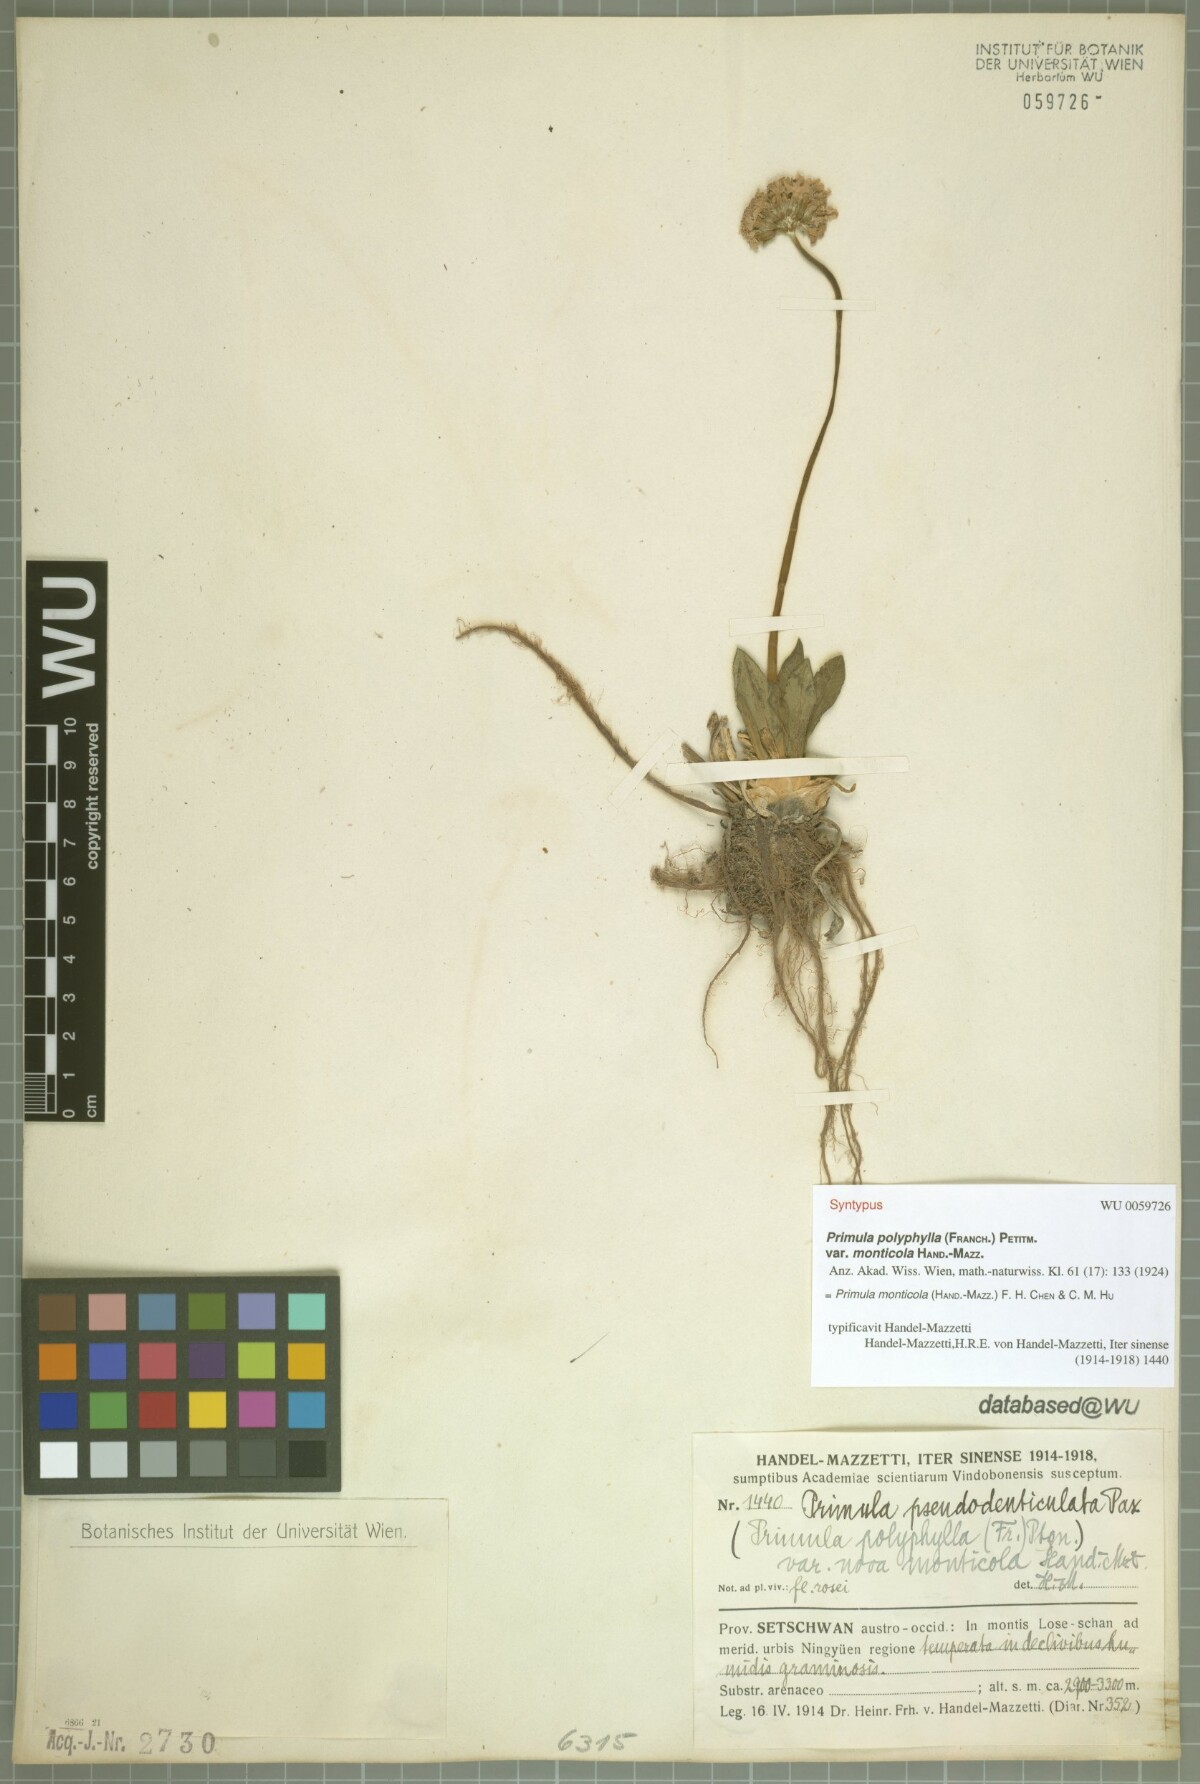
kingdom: Plantae
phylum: Tracheophyta
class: Magnoliopsida
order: Ericales
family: Primulaceae
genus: Primula
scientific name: Primula monticola
